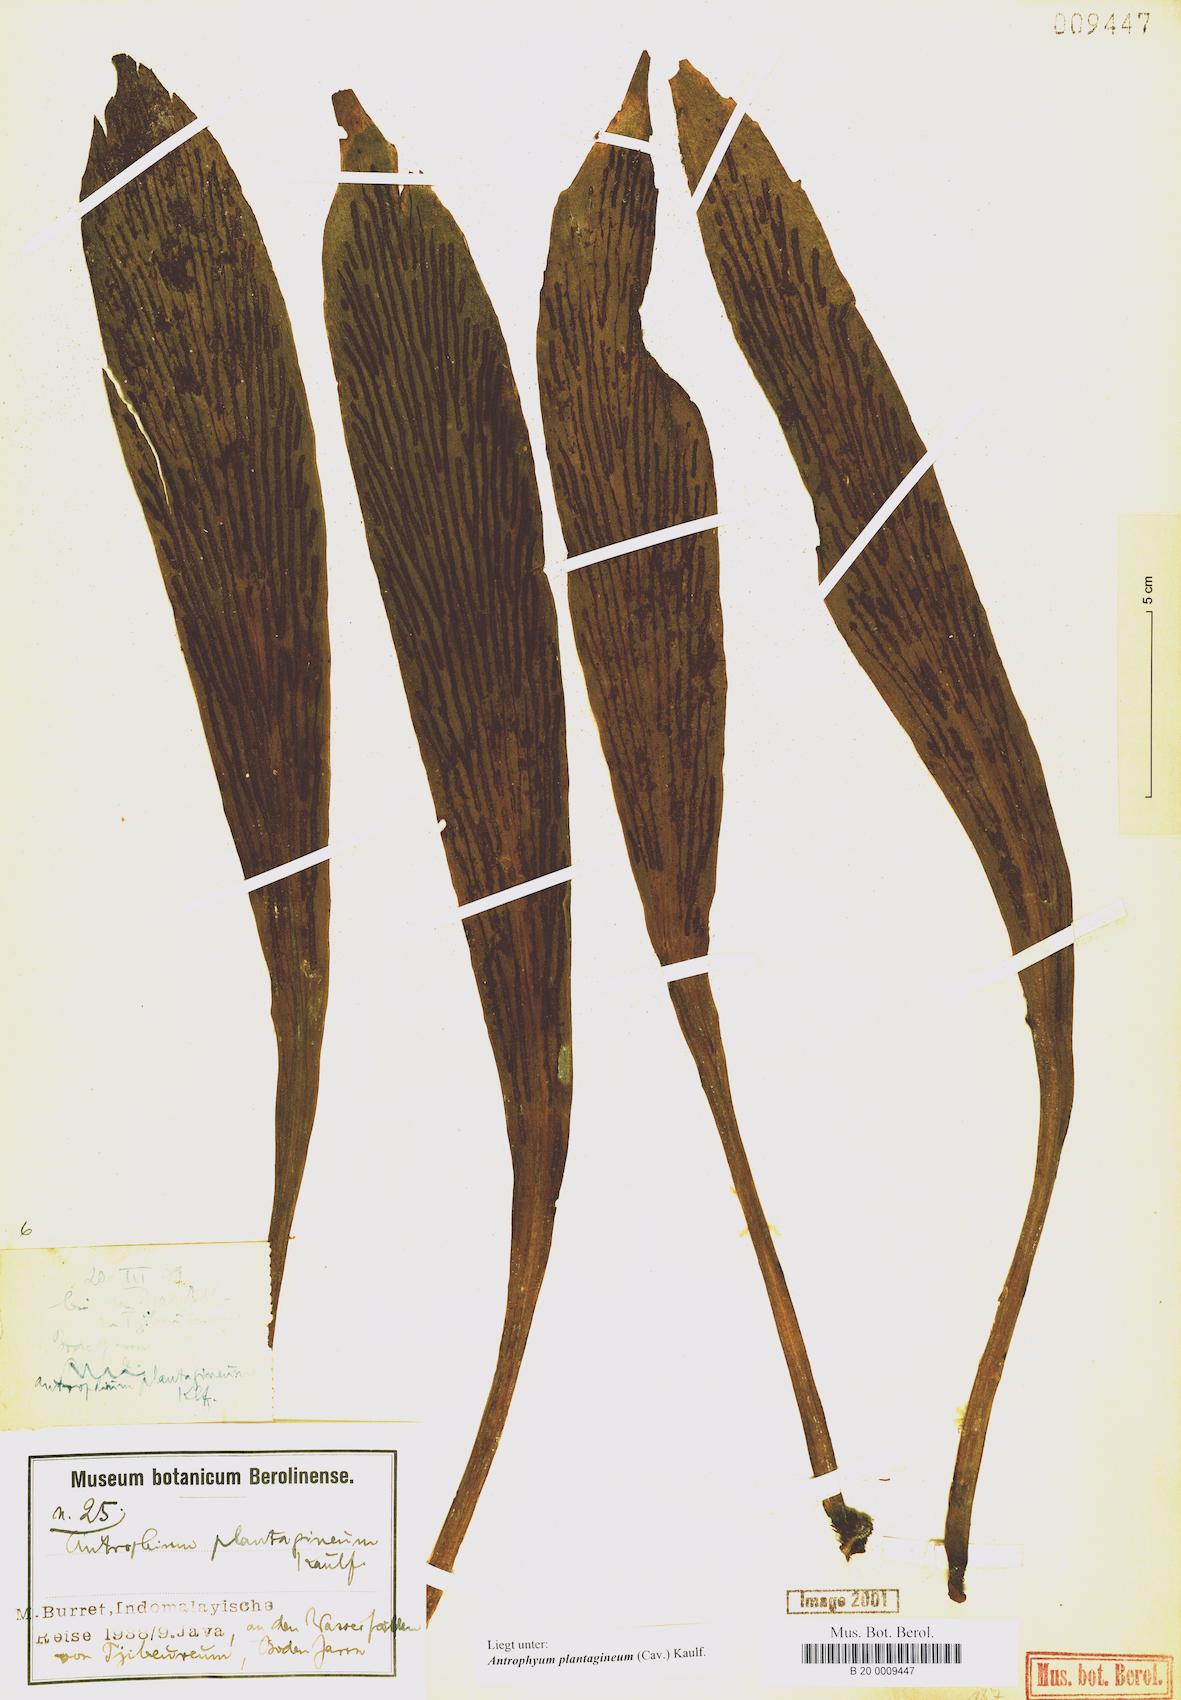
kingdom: Plantae
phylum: Tracheophyta
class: Polypodiopsida
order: Polypodiales
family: Pteridaceae
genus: Antrophyum
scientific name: Antrophyum plantagineum
